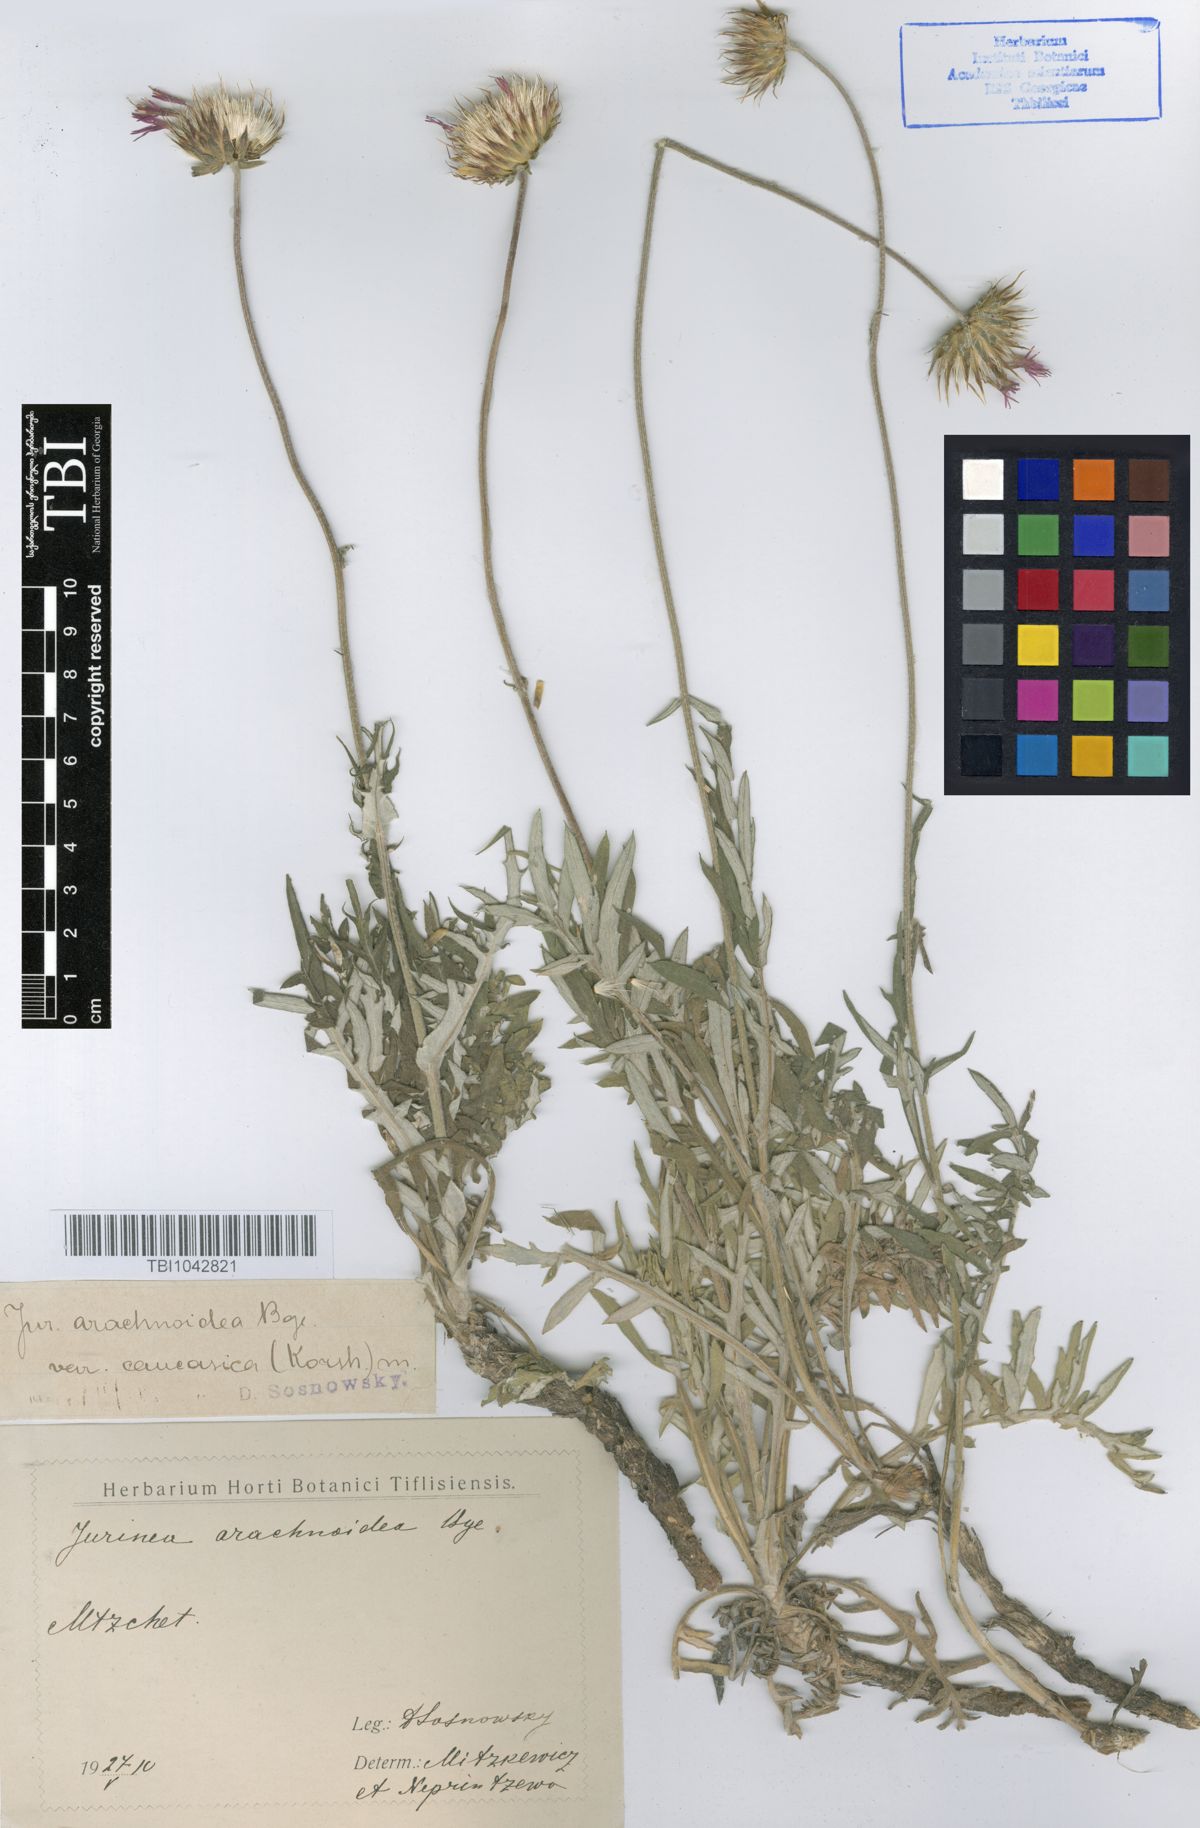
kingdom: Plantae
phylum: Tracheophyta
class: Magnoliopsida
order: Asterales
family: Asteraceae
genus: Jurinea
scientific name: Jurinea blanda
